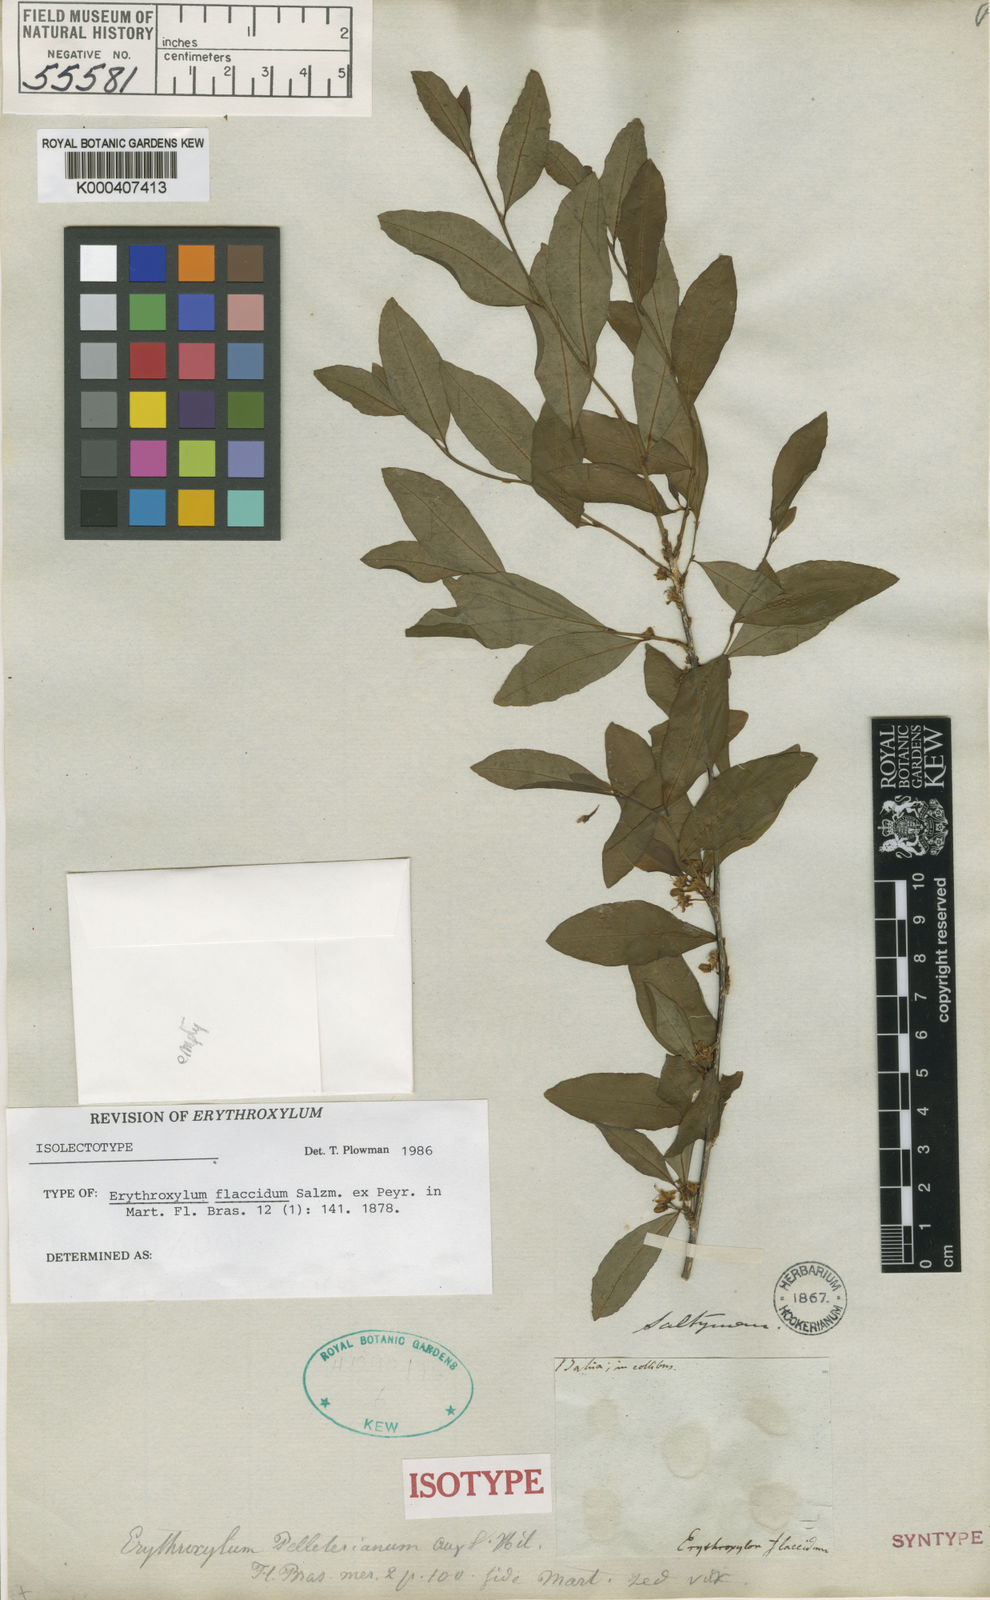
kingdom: Plantae
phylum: Tracheophyta
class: Magnoliopsida
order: Malpighiales
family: Erythroxylaceae
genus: Erythroxylum
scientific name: Erythroxylum flaccidum
